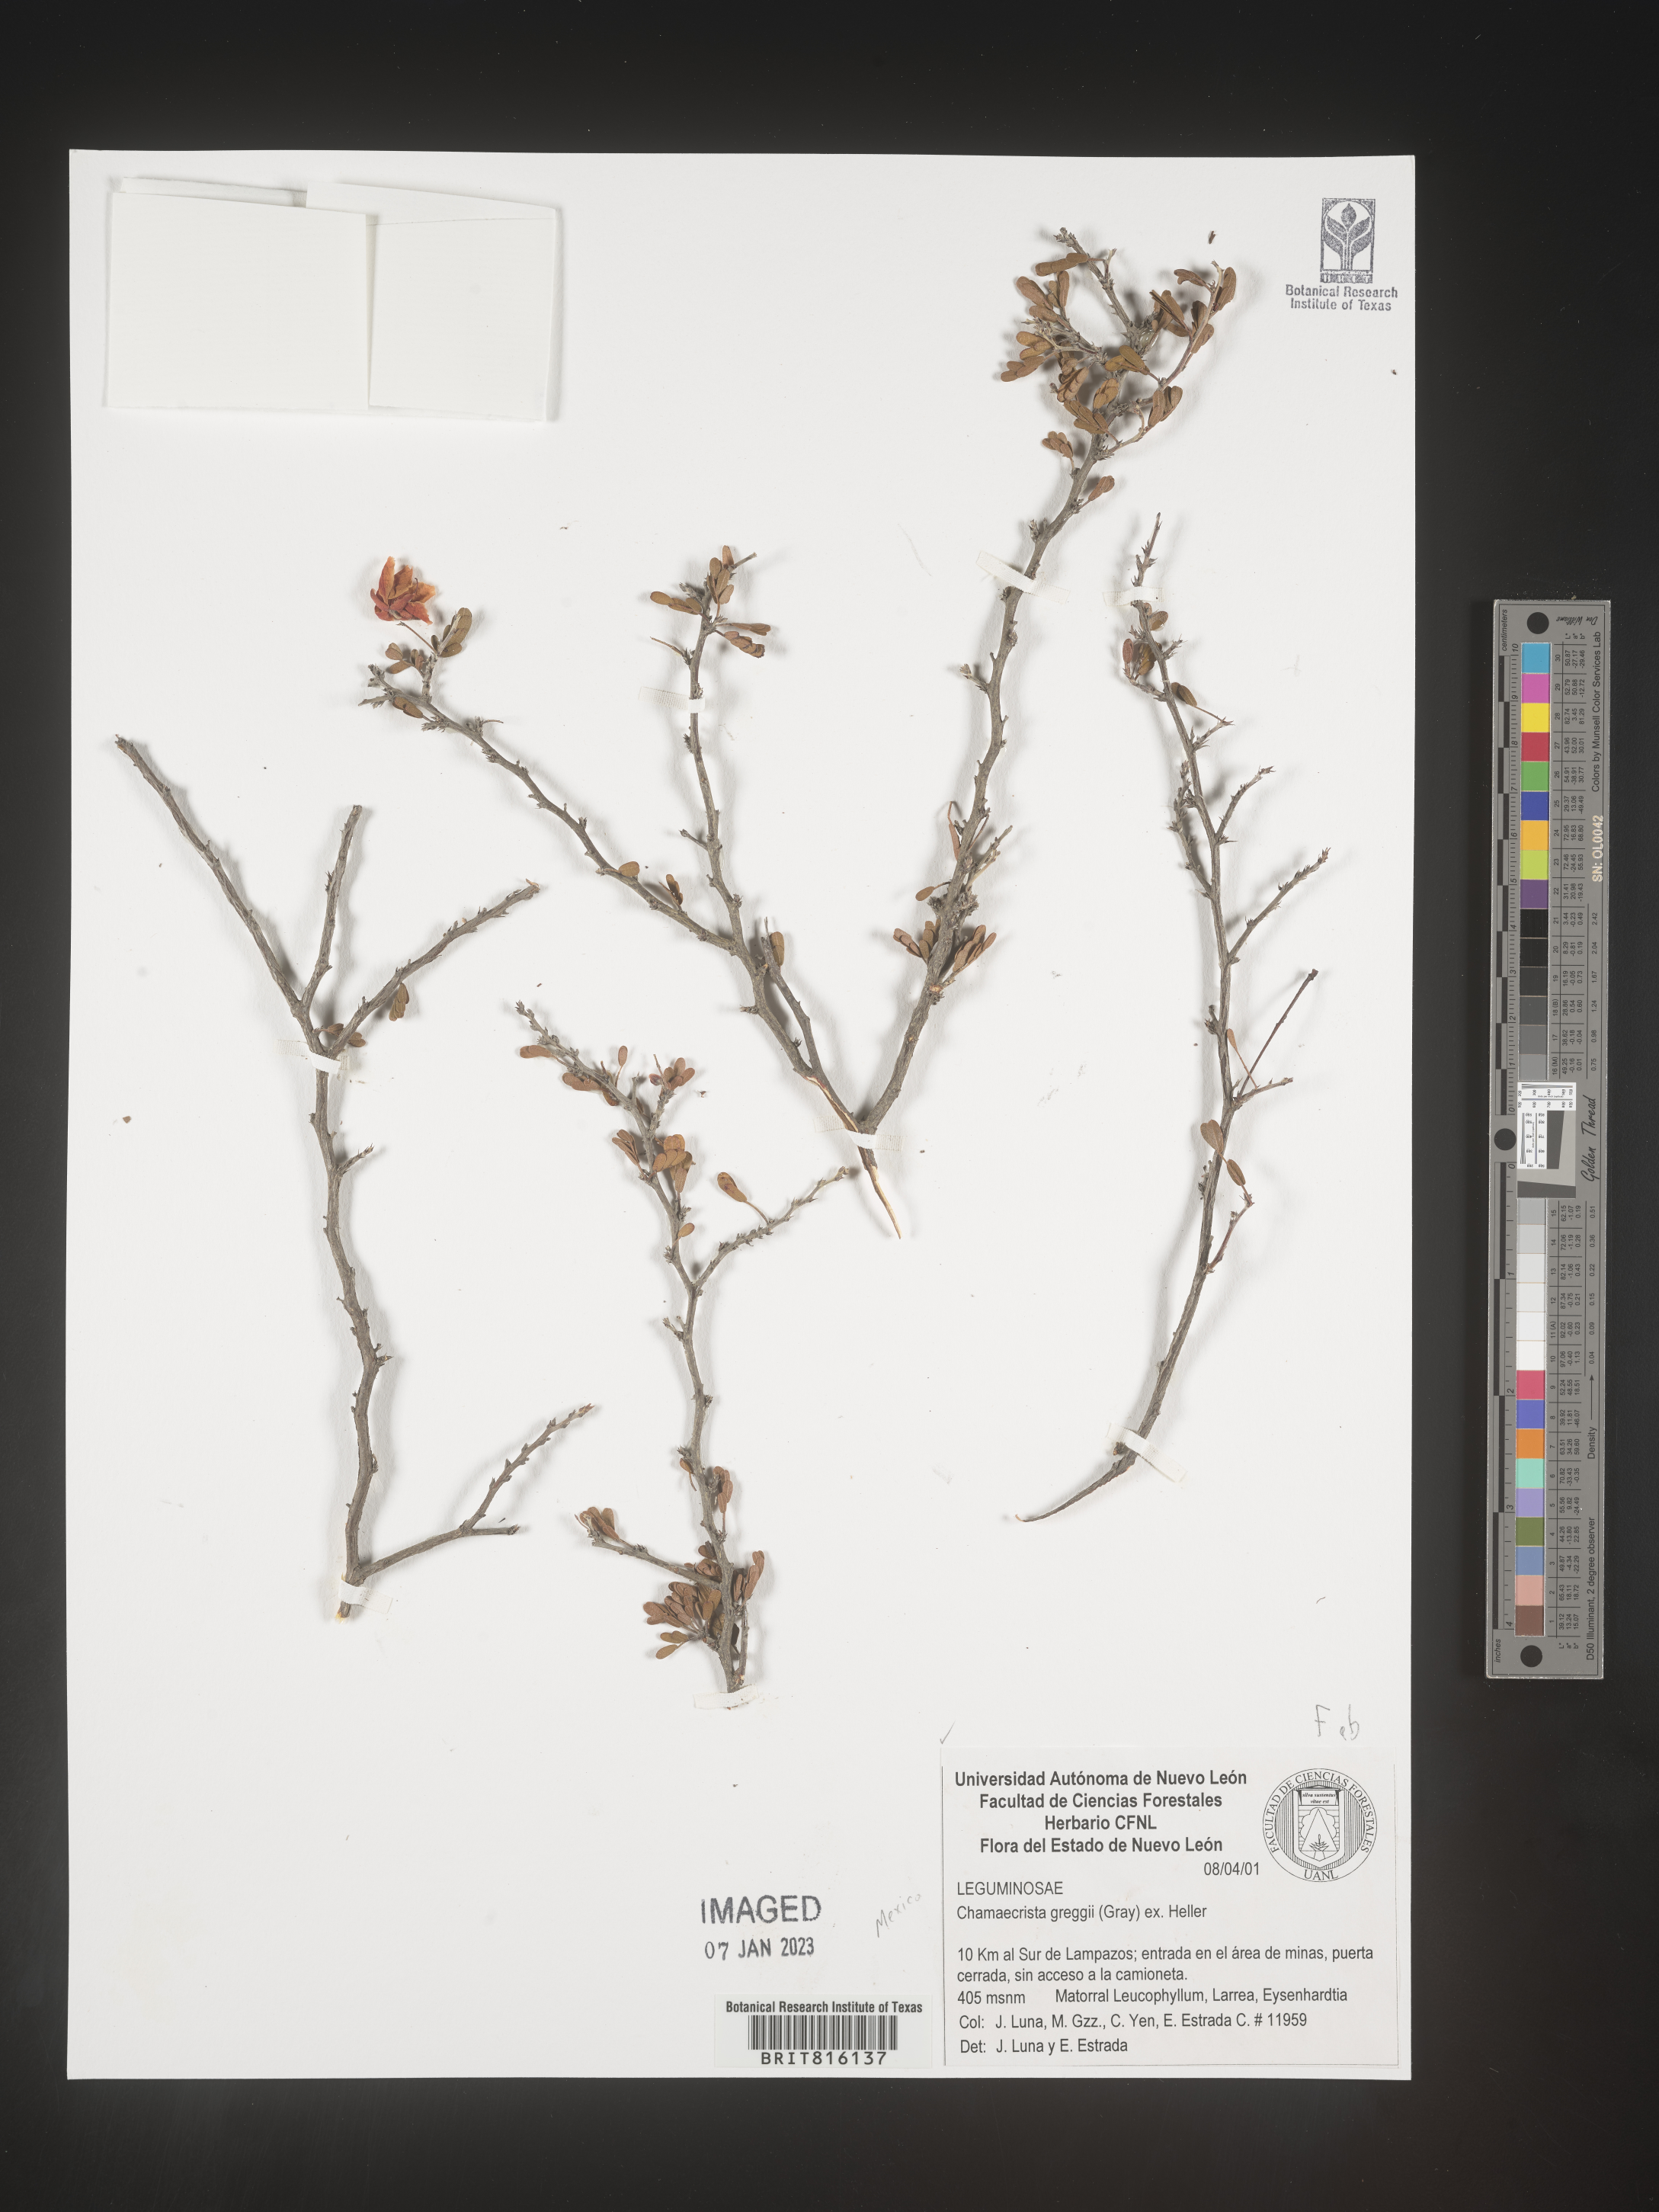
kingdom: Plantae
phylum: Tracheophyta
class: Magnoliopsida
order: Fabales
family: Fabaceae
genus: Chamaecrista
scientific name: Chamaecrista
